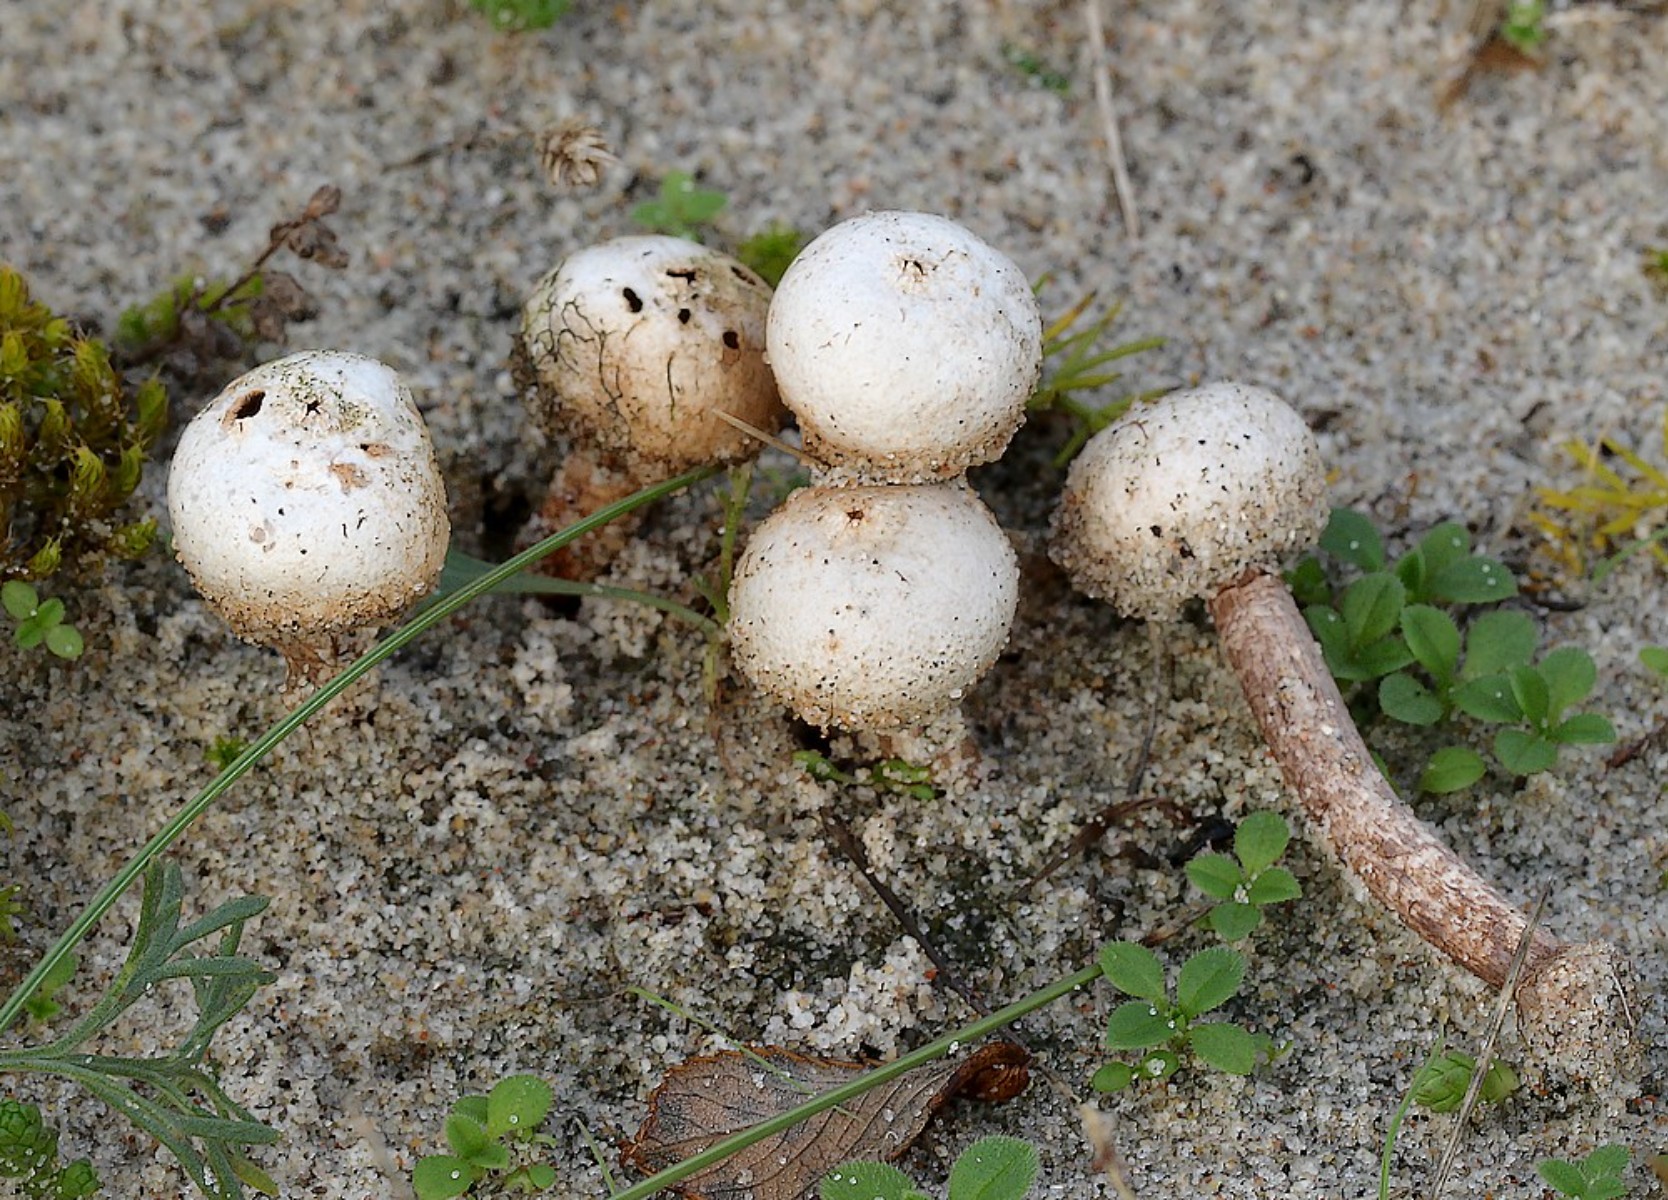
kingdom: Fungi
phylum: Basidiomycota
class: Agaricomycetes
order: Agaricales
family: Agaricaceae
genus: Tulostoma
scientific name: Tulostoma fimbriatum
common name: frynset stilkbovist
